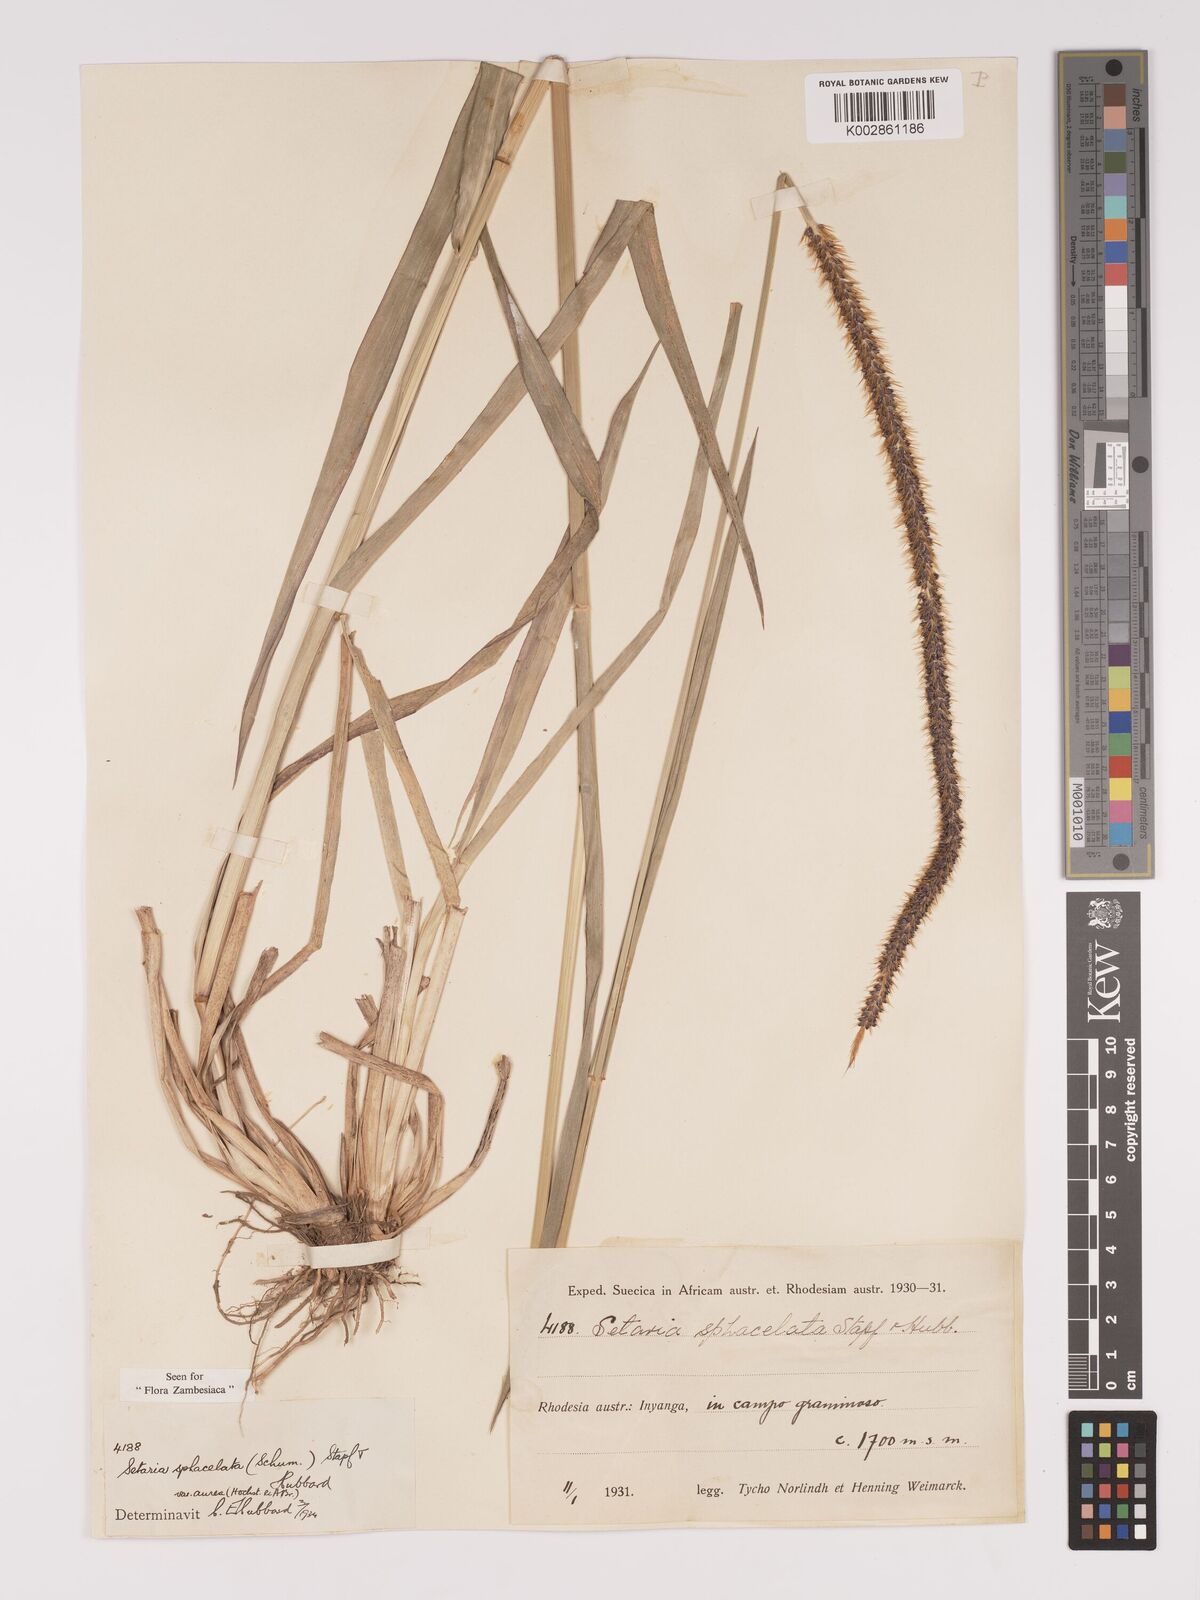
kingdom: Plantae
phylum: Tracheophyta
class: Liliopsida
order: Poales
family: Poaceae
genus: Setaria
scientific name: Setaria sphacelata
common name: African bristlegrass
